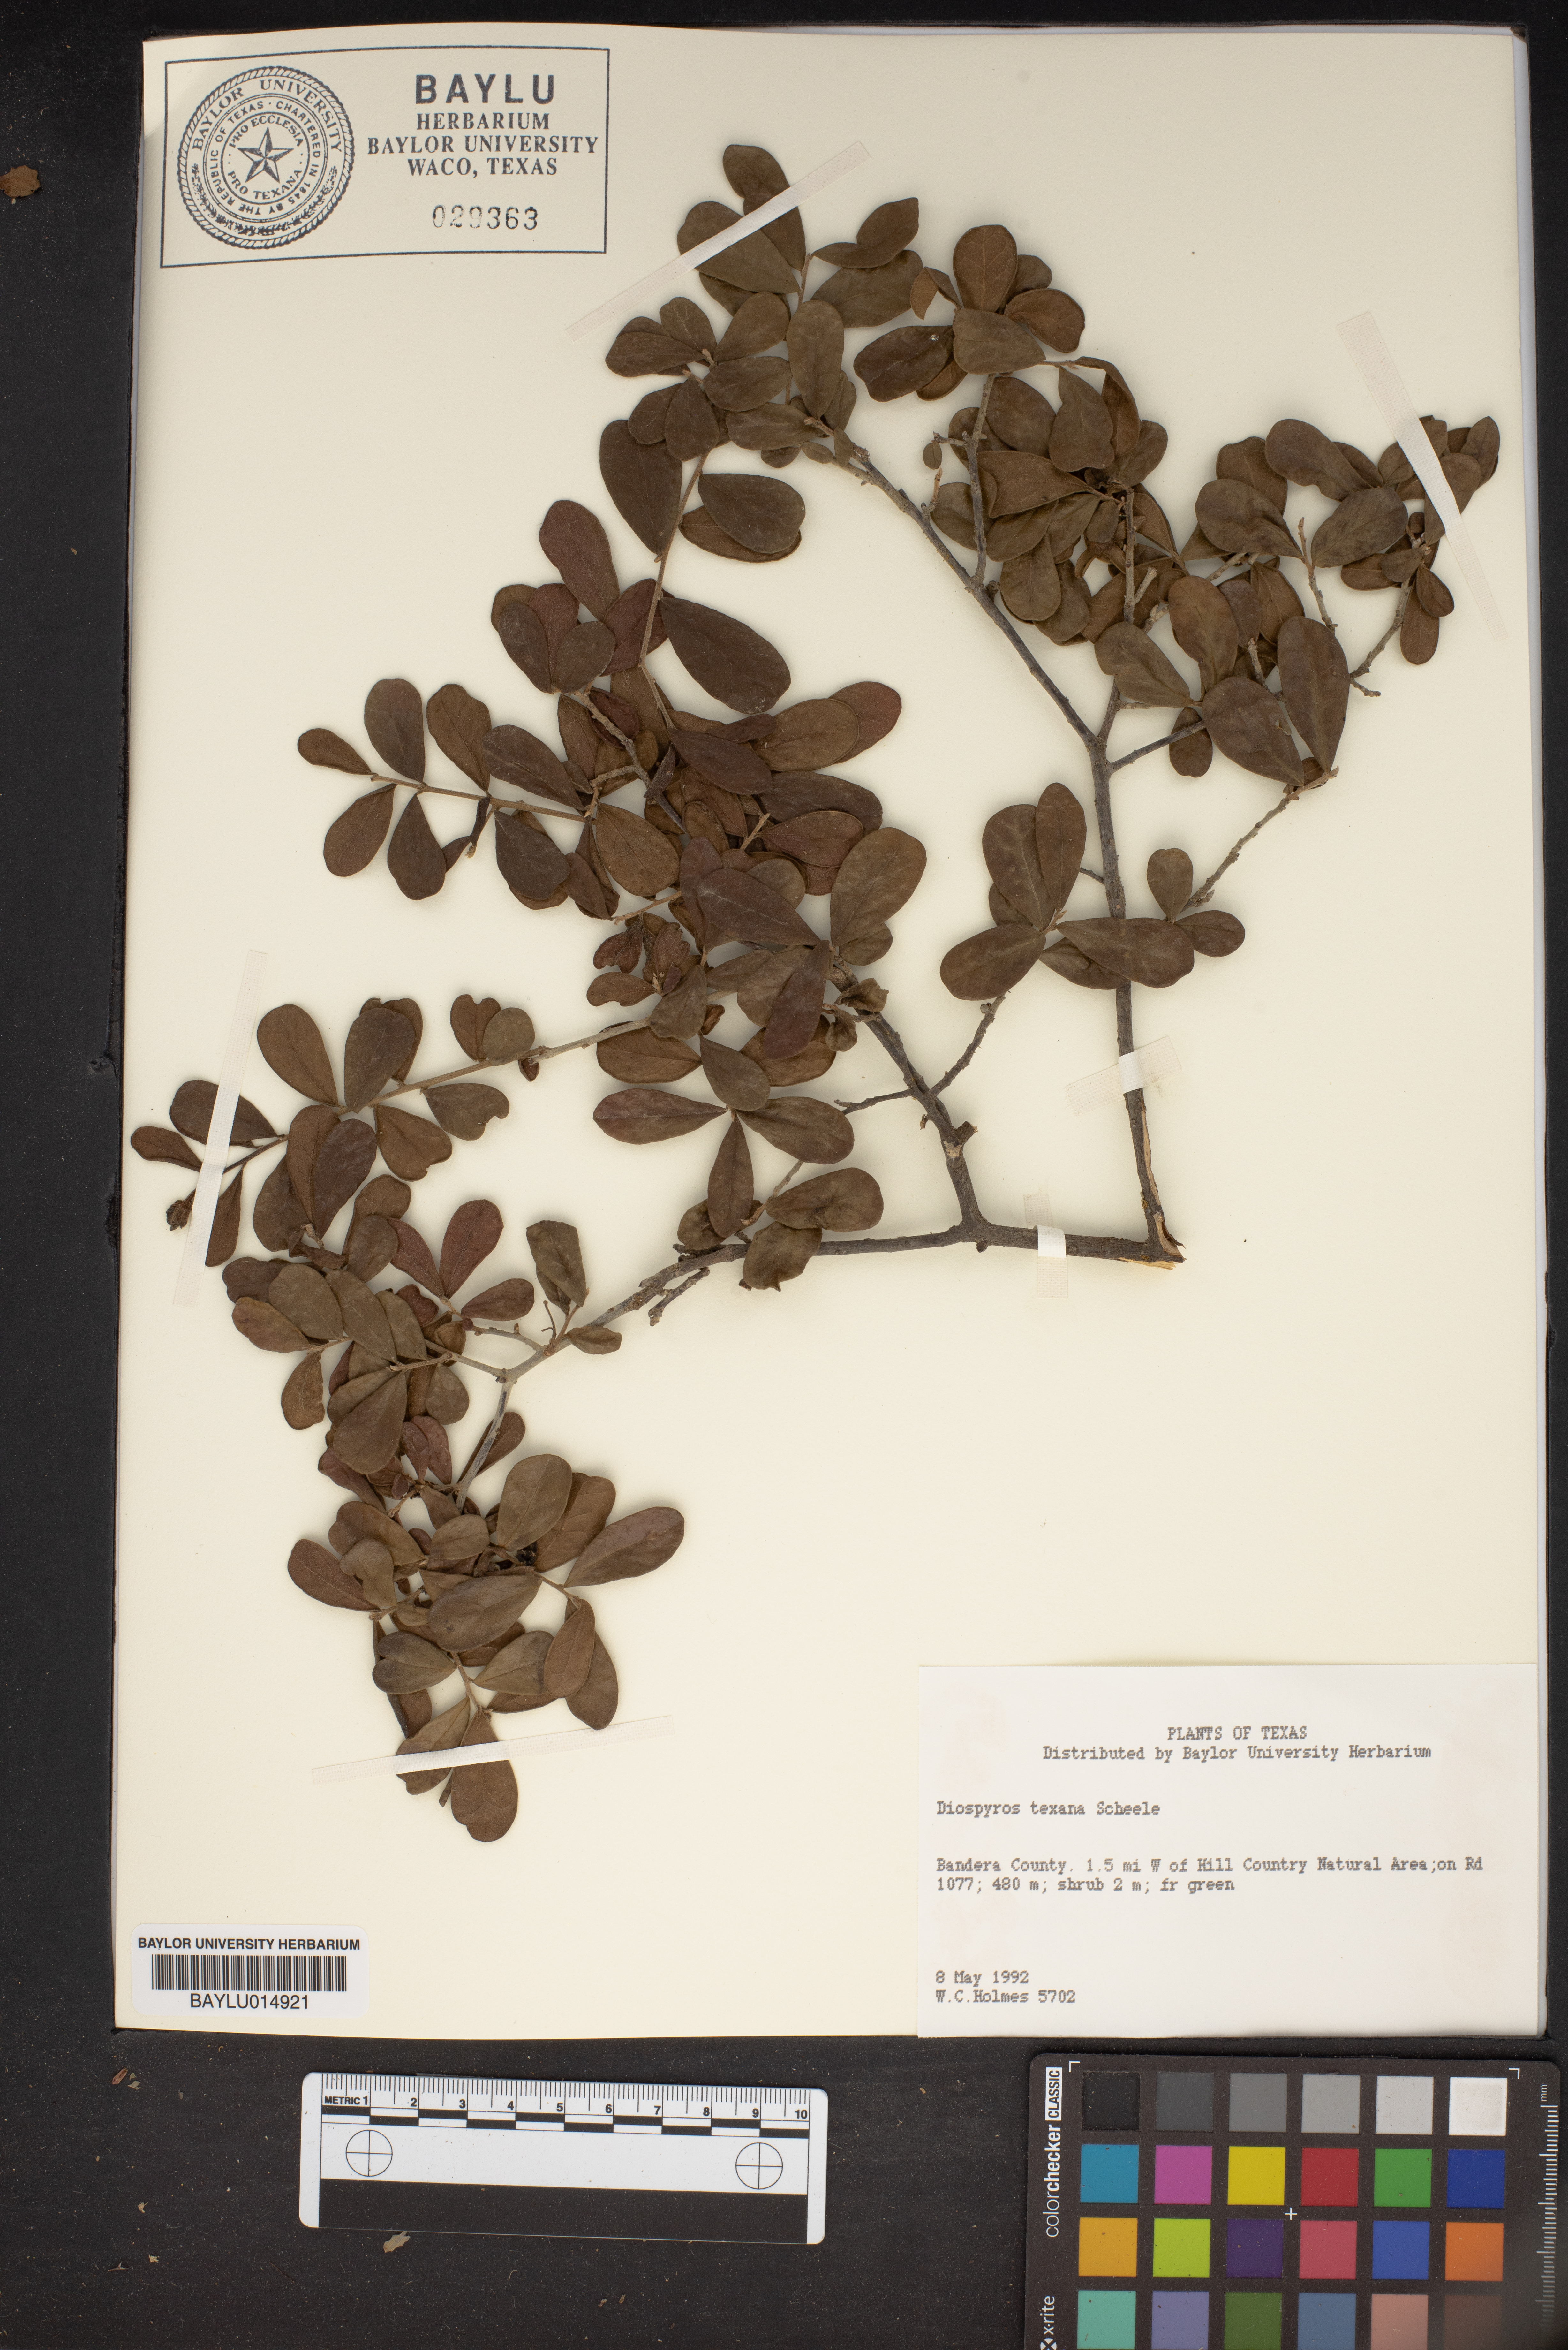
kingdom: Plantae
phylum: Tracheophyta
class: Magnoliopsida
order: Ericales
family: Ebenaceae
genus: Diospyros
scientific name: Diospyros texana
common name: Texas persimmon
